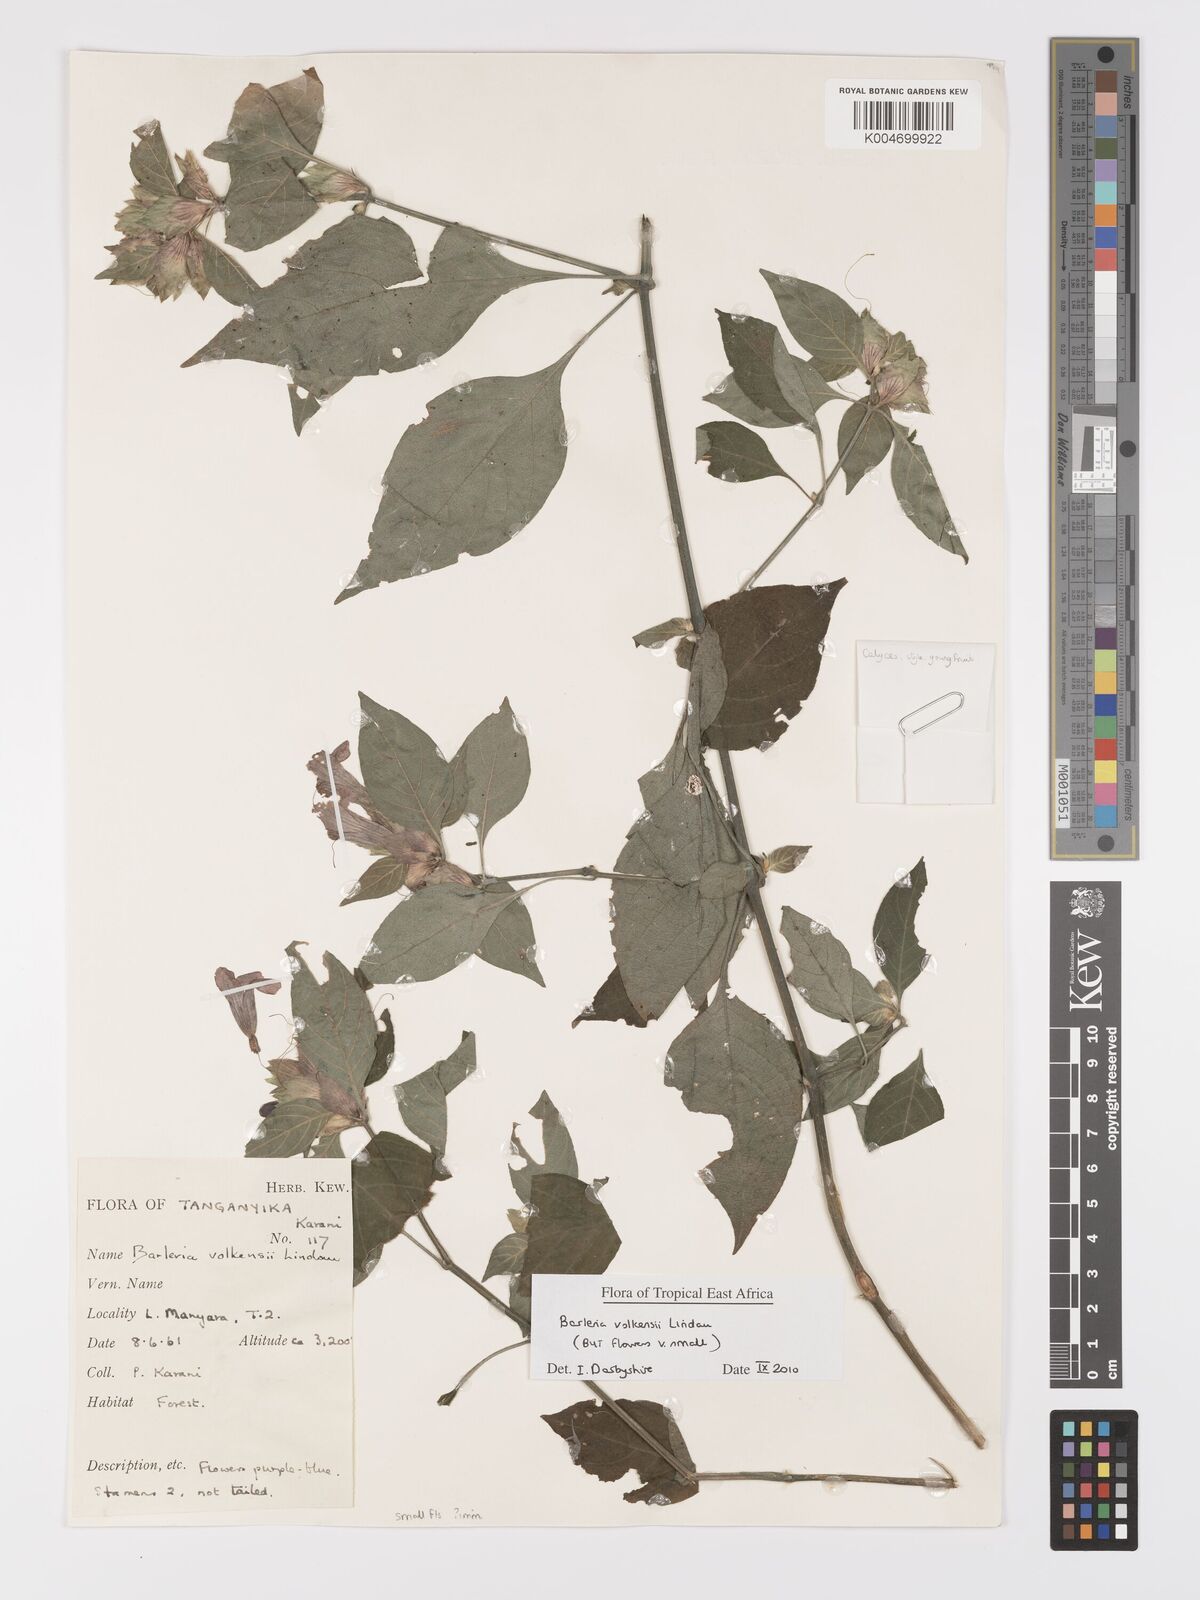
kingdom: Plantae
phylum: Tracheophyta
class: Magnoliopsida
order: Lamiales
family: Acanthaceae
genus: Barleria
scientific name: Barleria volkensii
